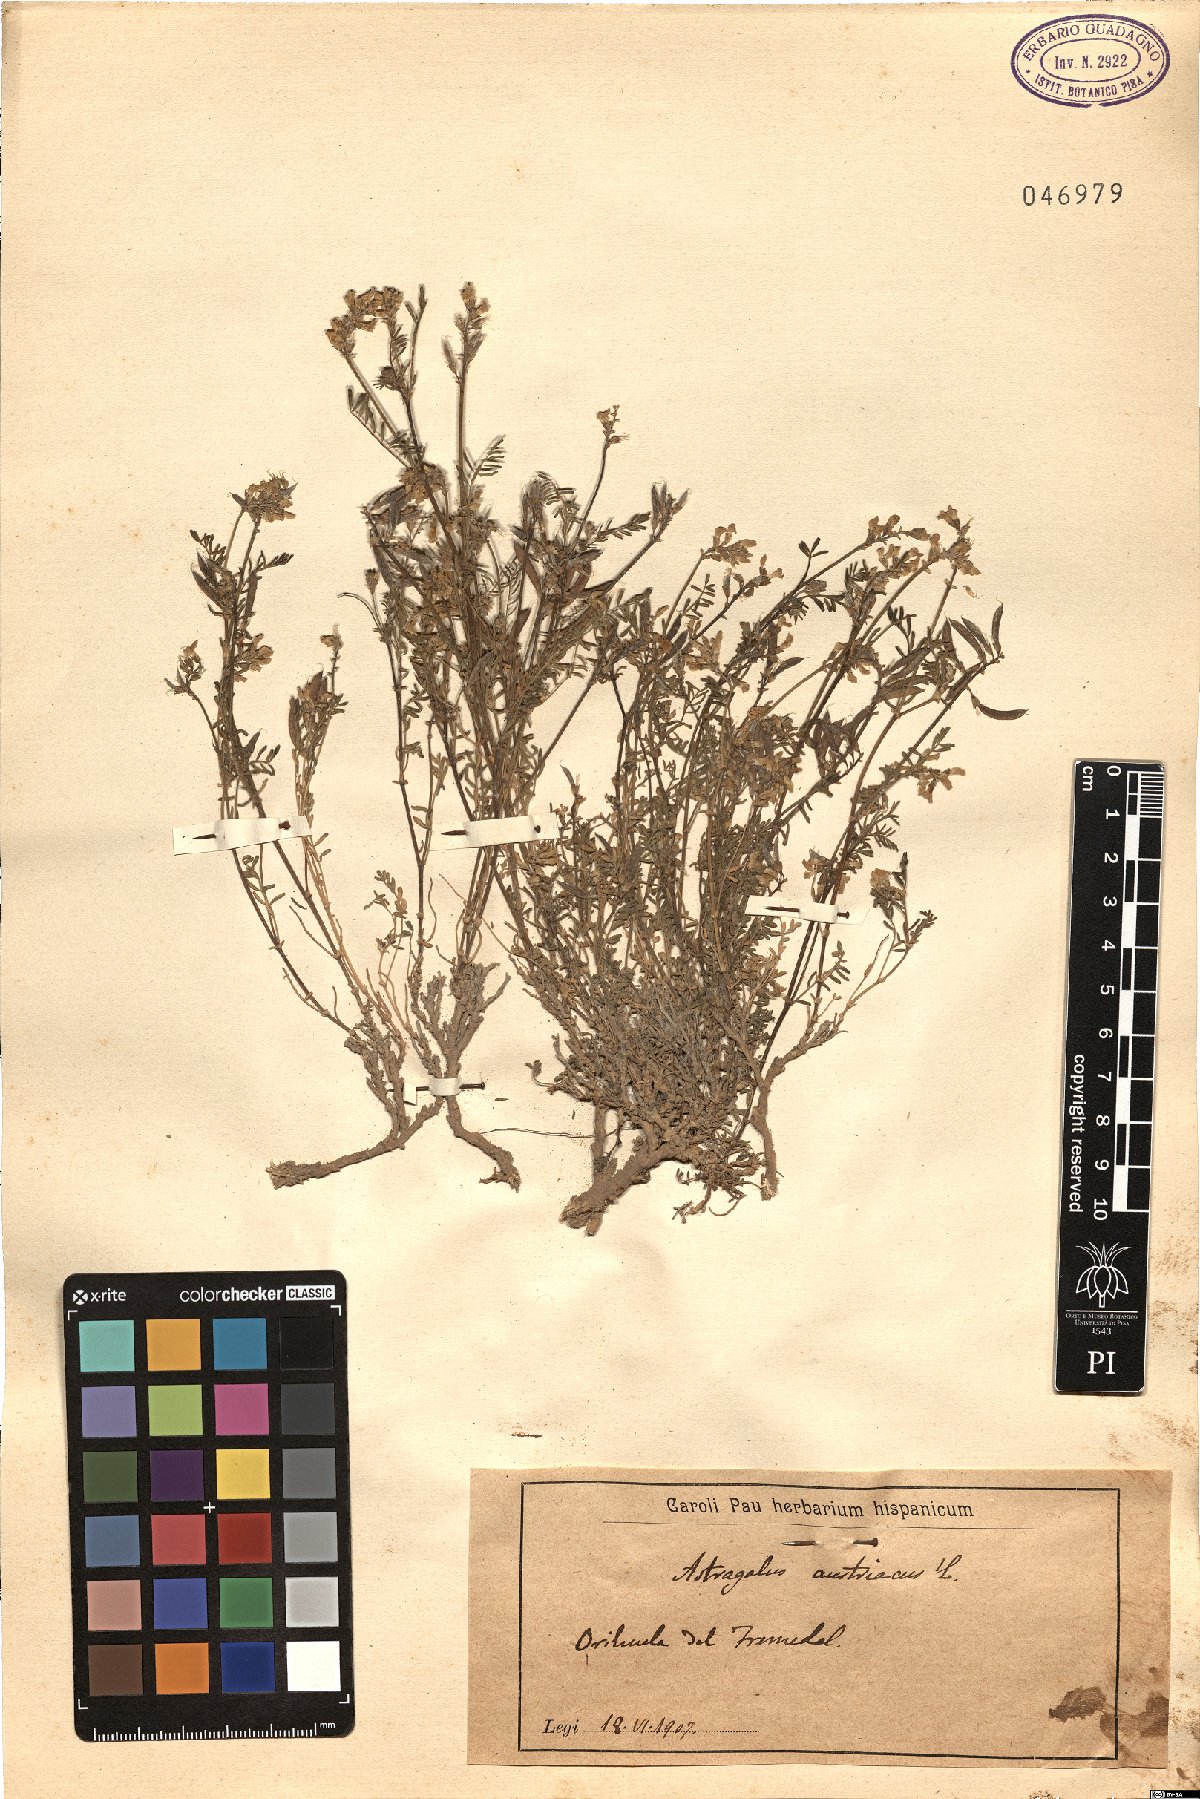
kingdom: Plantae
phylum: Tracheophyta
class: Magnoliopsida
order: Fabales
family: Fabaceae
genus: Astragalus
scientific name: Astragalus austriacus
